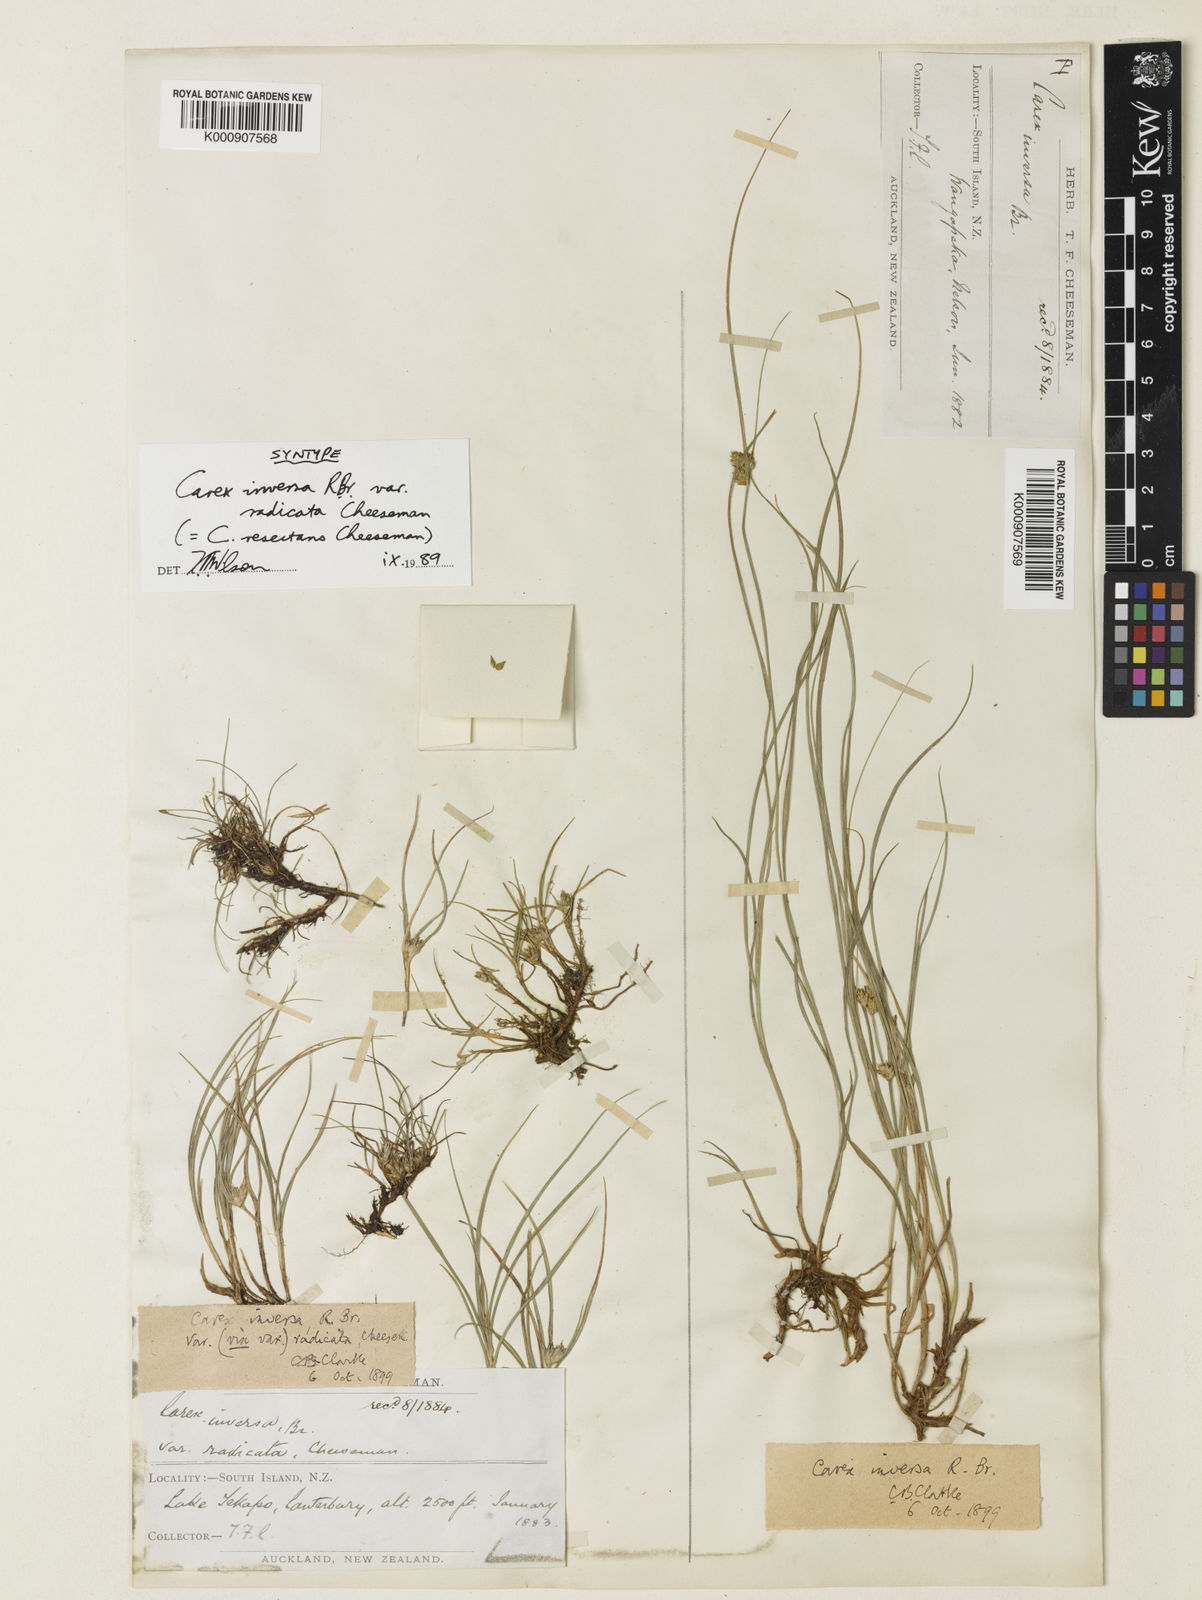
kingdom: Plantae
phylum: Tracheophyta
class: Liliopsida
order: Poales
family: Cyperaceae
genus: Carex
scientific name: Carex resectans
